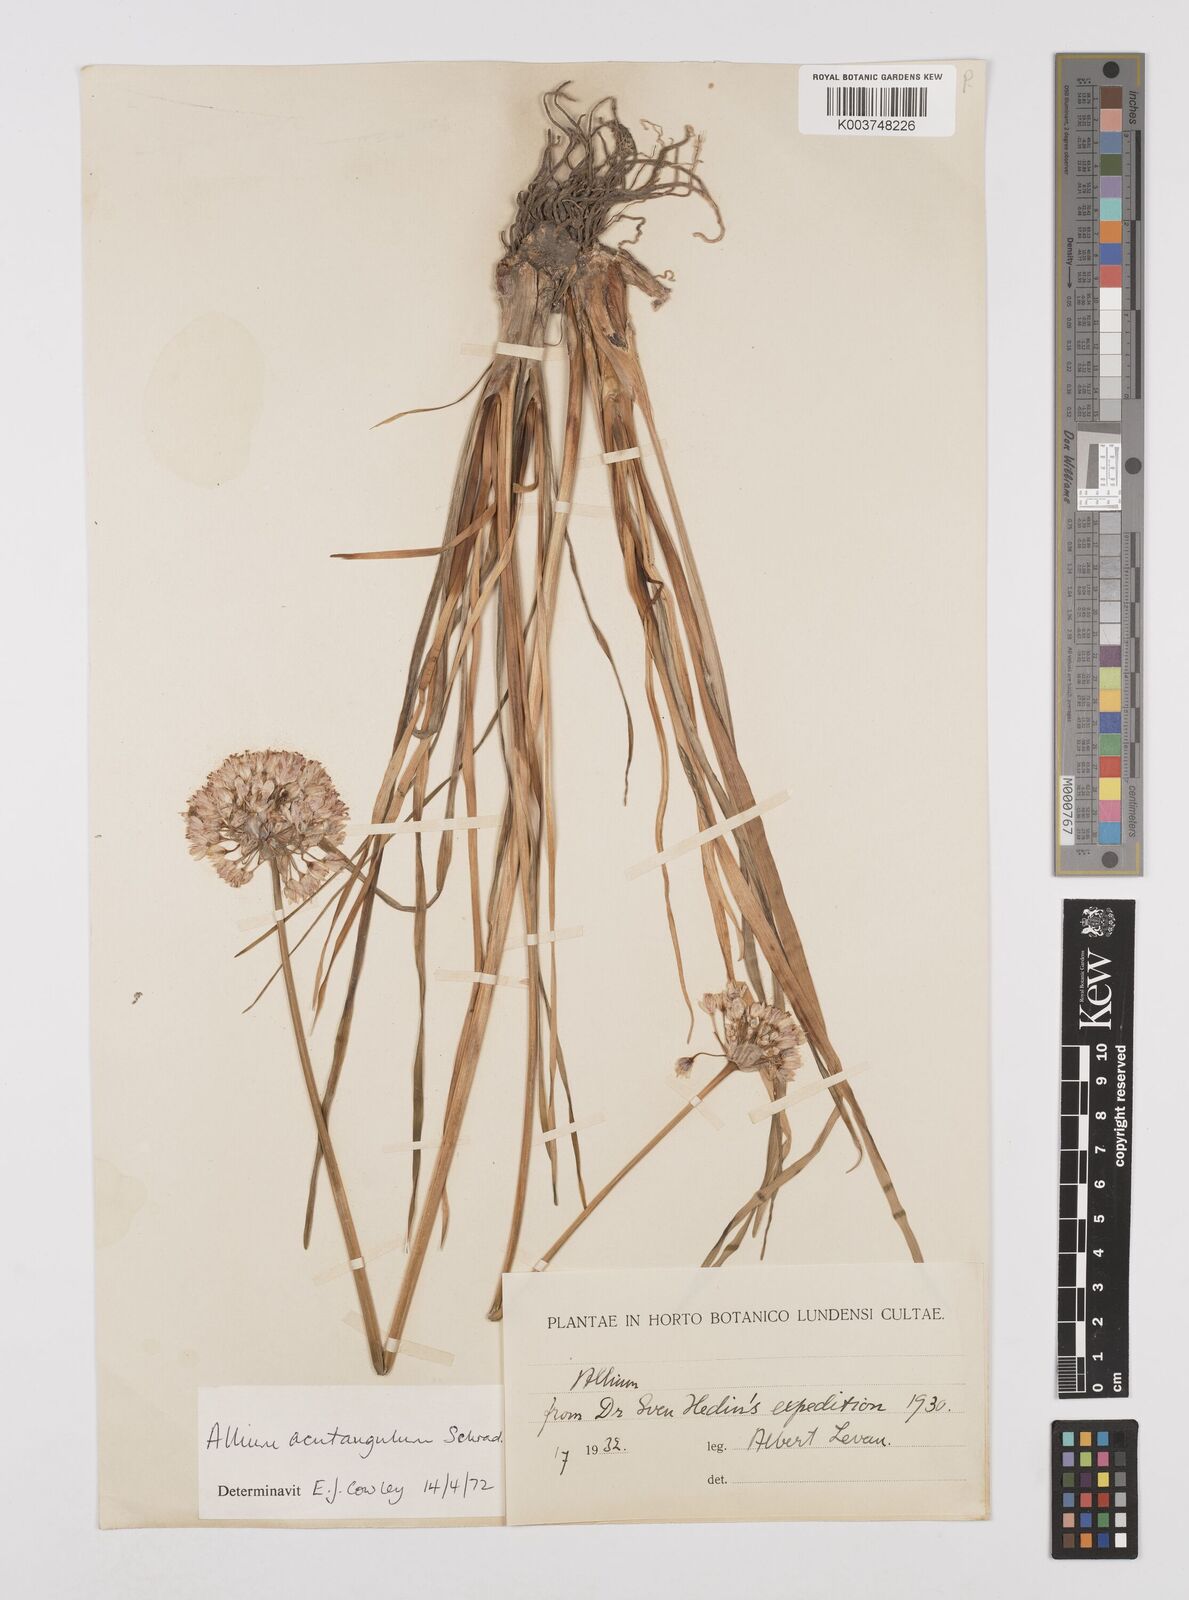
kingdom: Plantae
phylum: Tracheophyta
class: Liliopsida
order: Asparagales
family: Amaryllidaceae
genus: Allium
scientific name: Allium angulosum
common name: Mouse garlic
